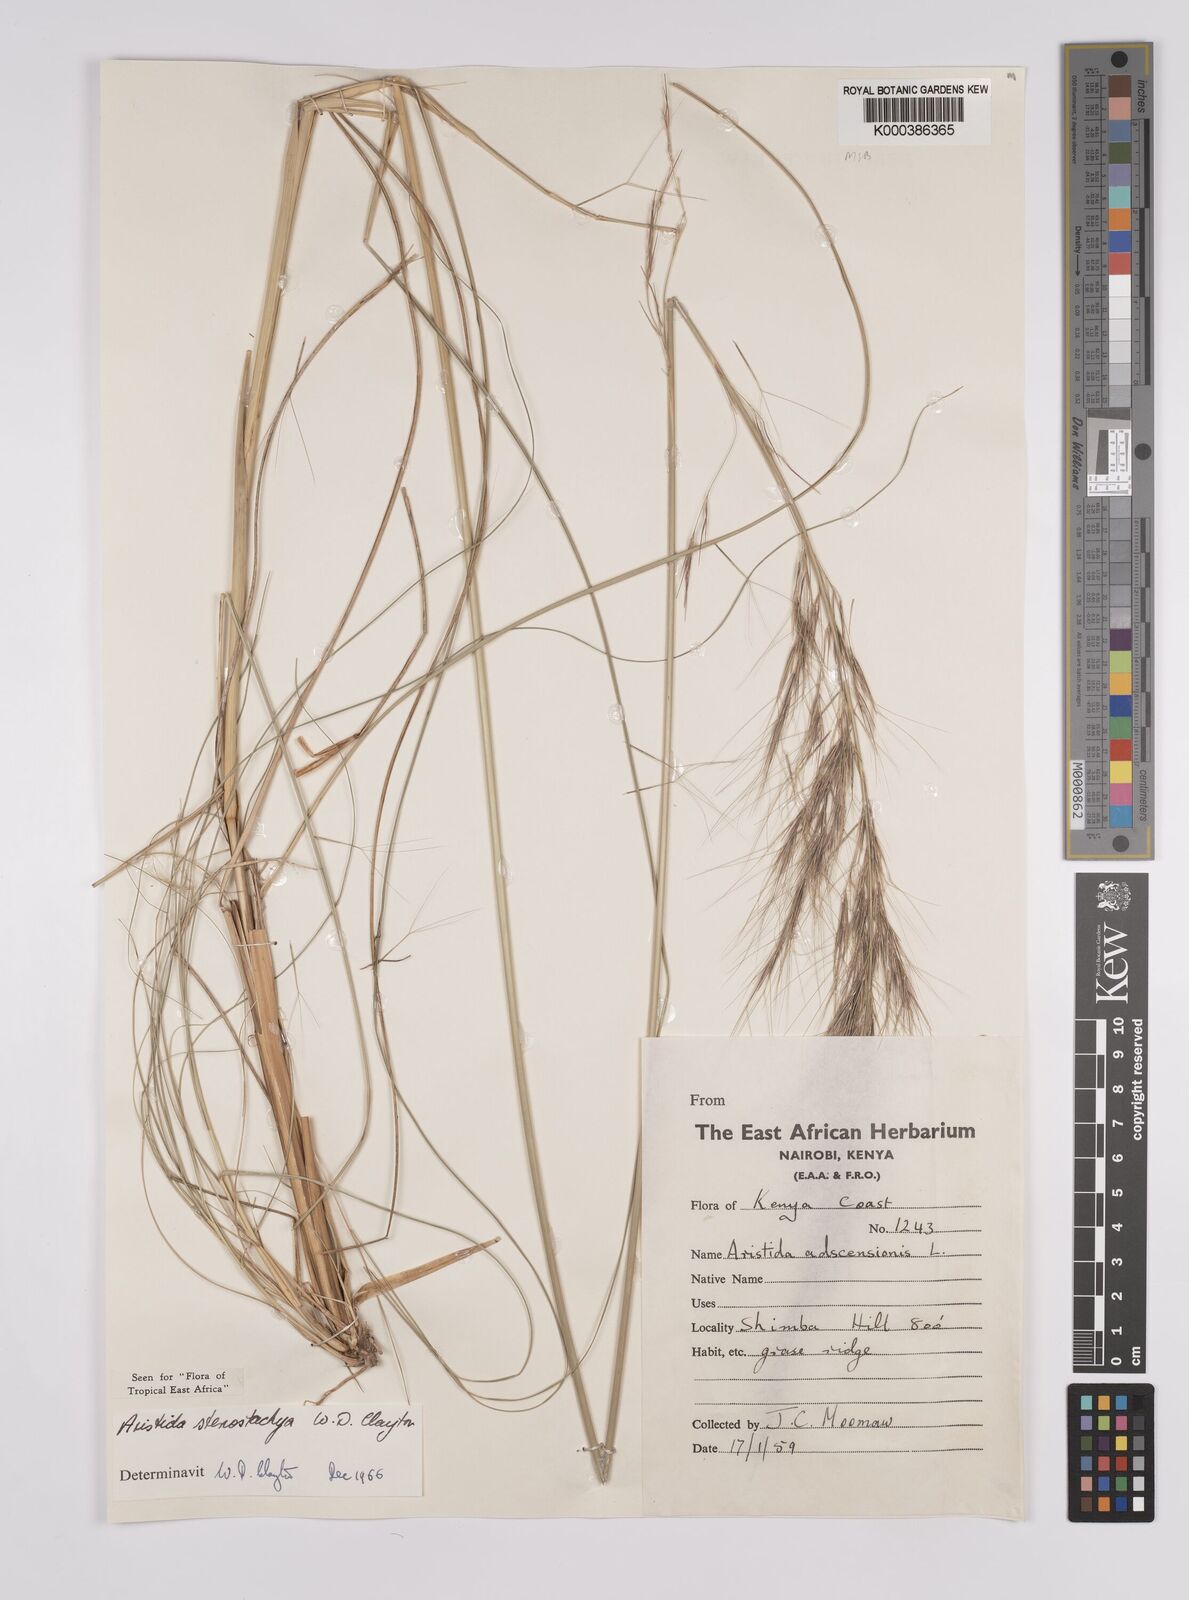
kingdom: Plantae
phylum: Tracheophyta
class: Liliopsida
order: Poales
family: Poaceae
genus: Aristida
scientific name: Aristida stenostachya
